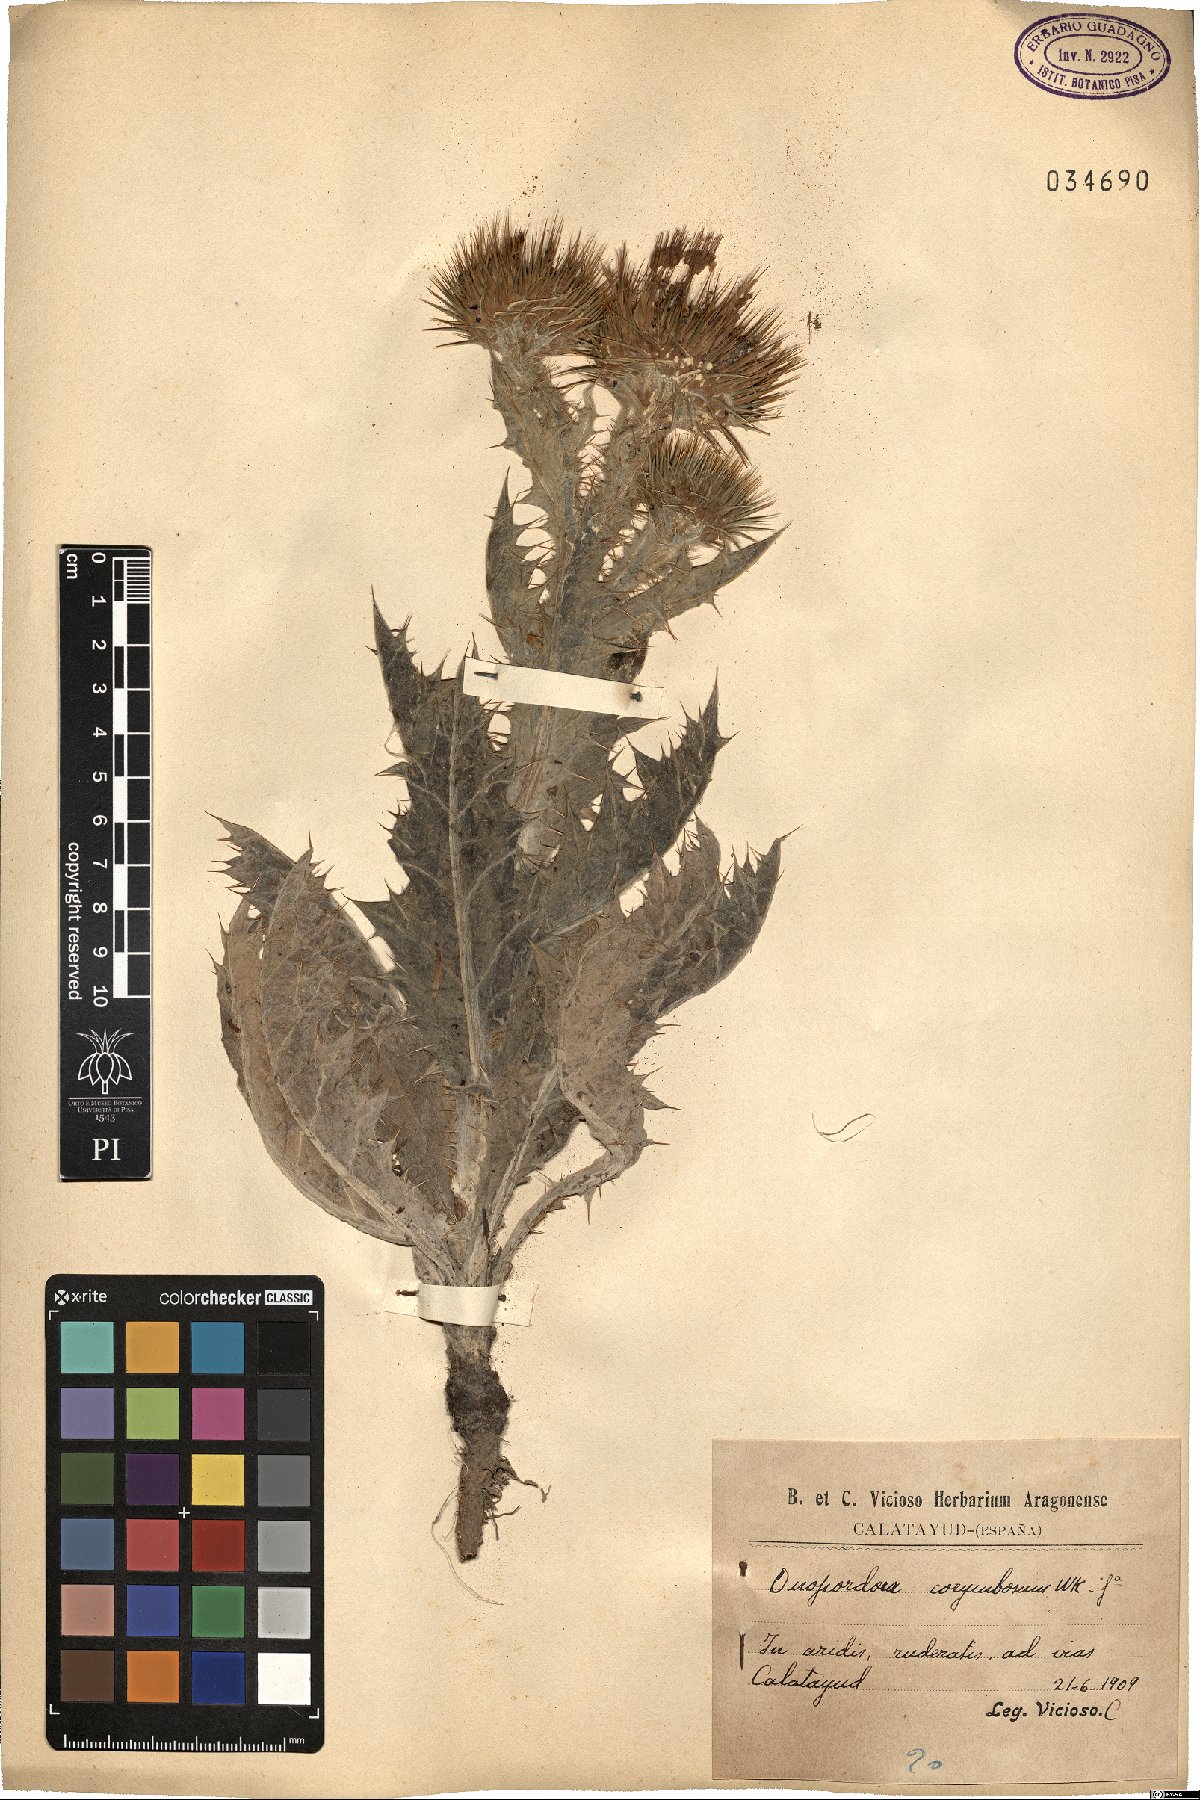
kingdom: Plantae
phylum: Tracheophyta
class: Magnoliopsida
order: Asterales
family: Asteraceae
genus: Onopordum
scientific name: Onopordum corymbosum
